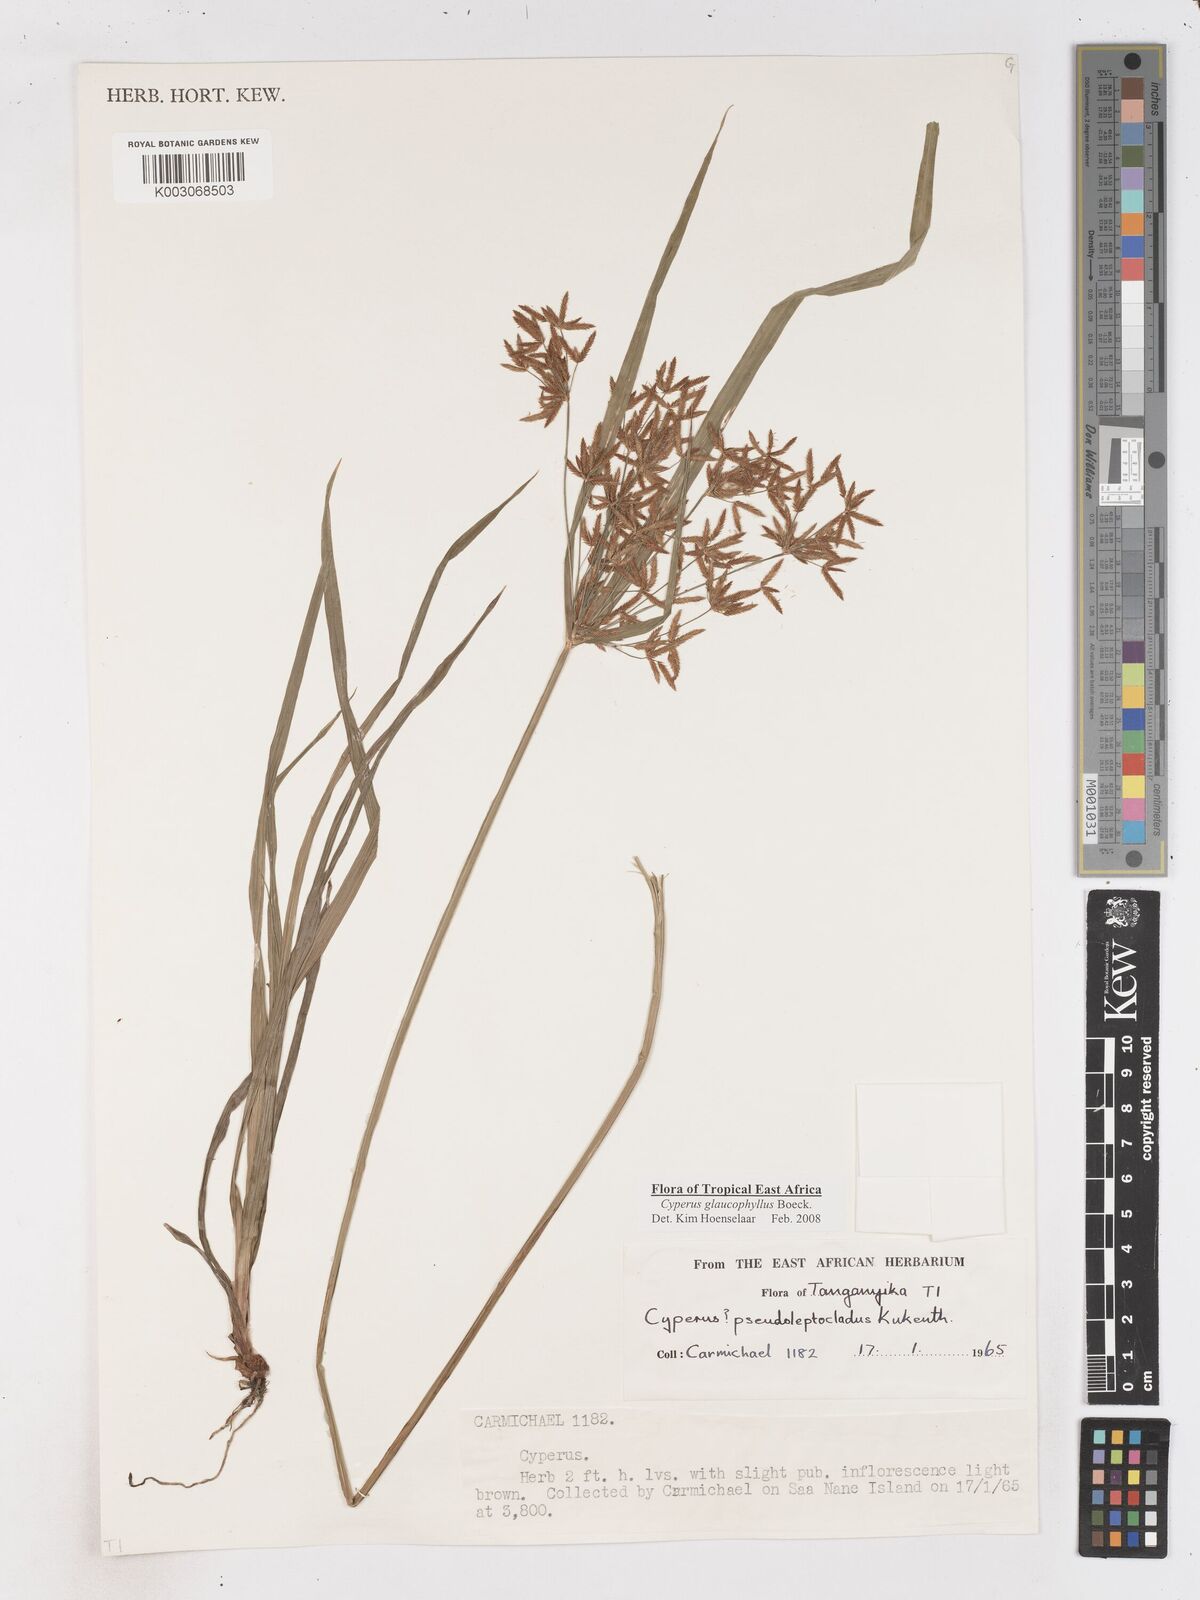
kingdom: Plantae
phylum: Tracheophyta
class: Liliopsida
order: Poales
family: Cyperaceae
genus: Cyperus
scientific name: Cyperus glaucophyllus
